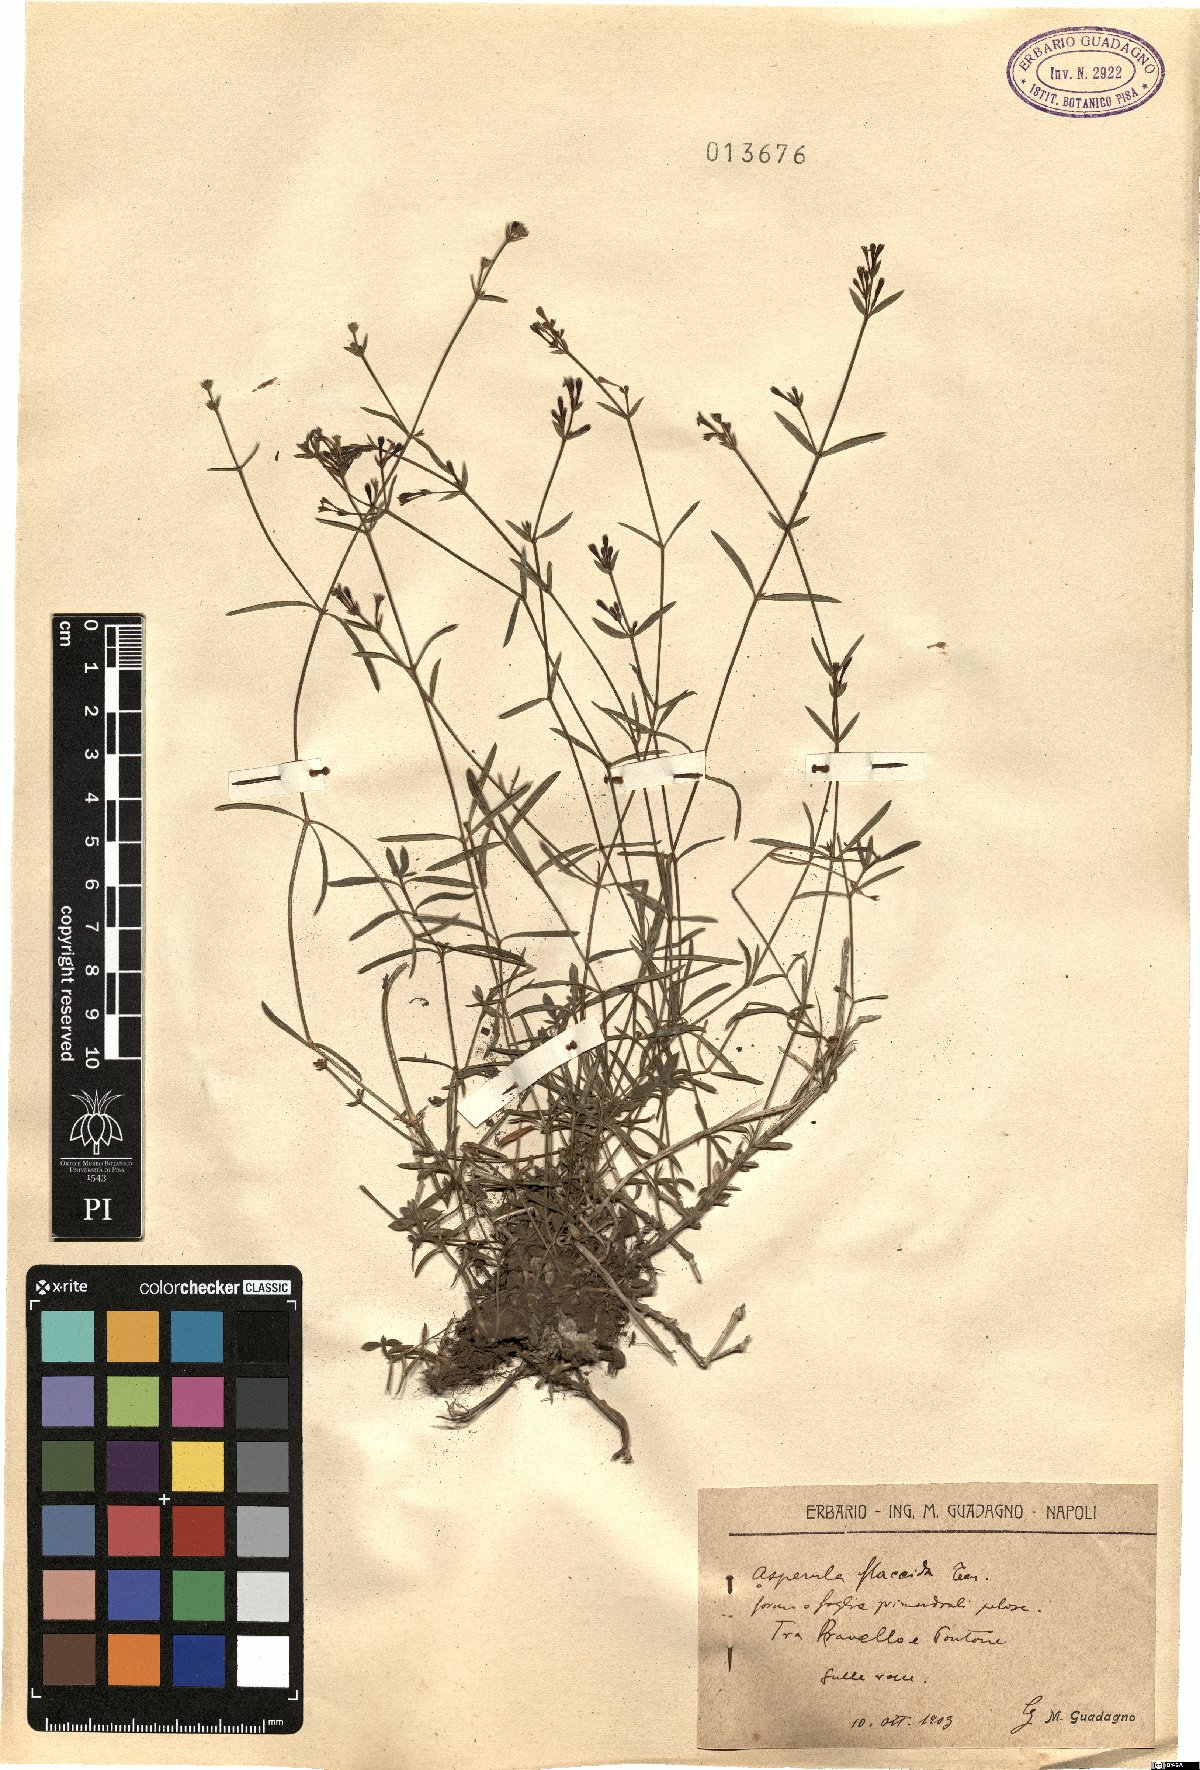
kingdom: Plantae
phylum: Tracheophyta
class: Magnoliopsida
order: Gentianales
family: Rubiaceae
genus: Cynanchica
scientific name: Cynanchica aristata
